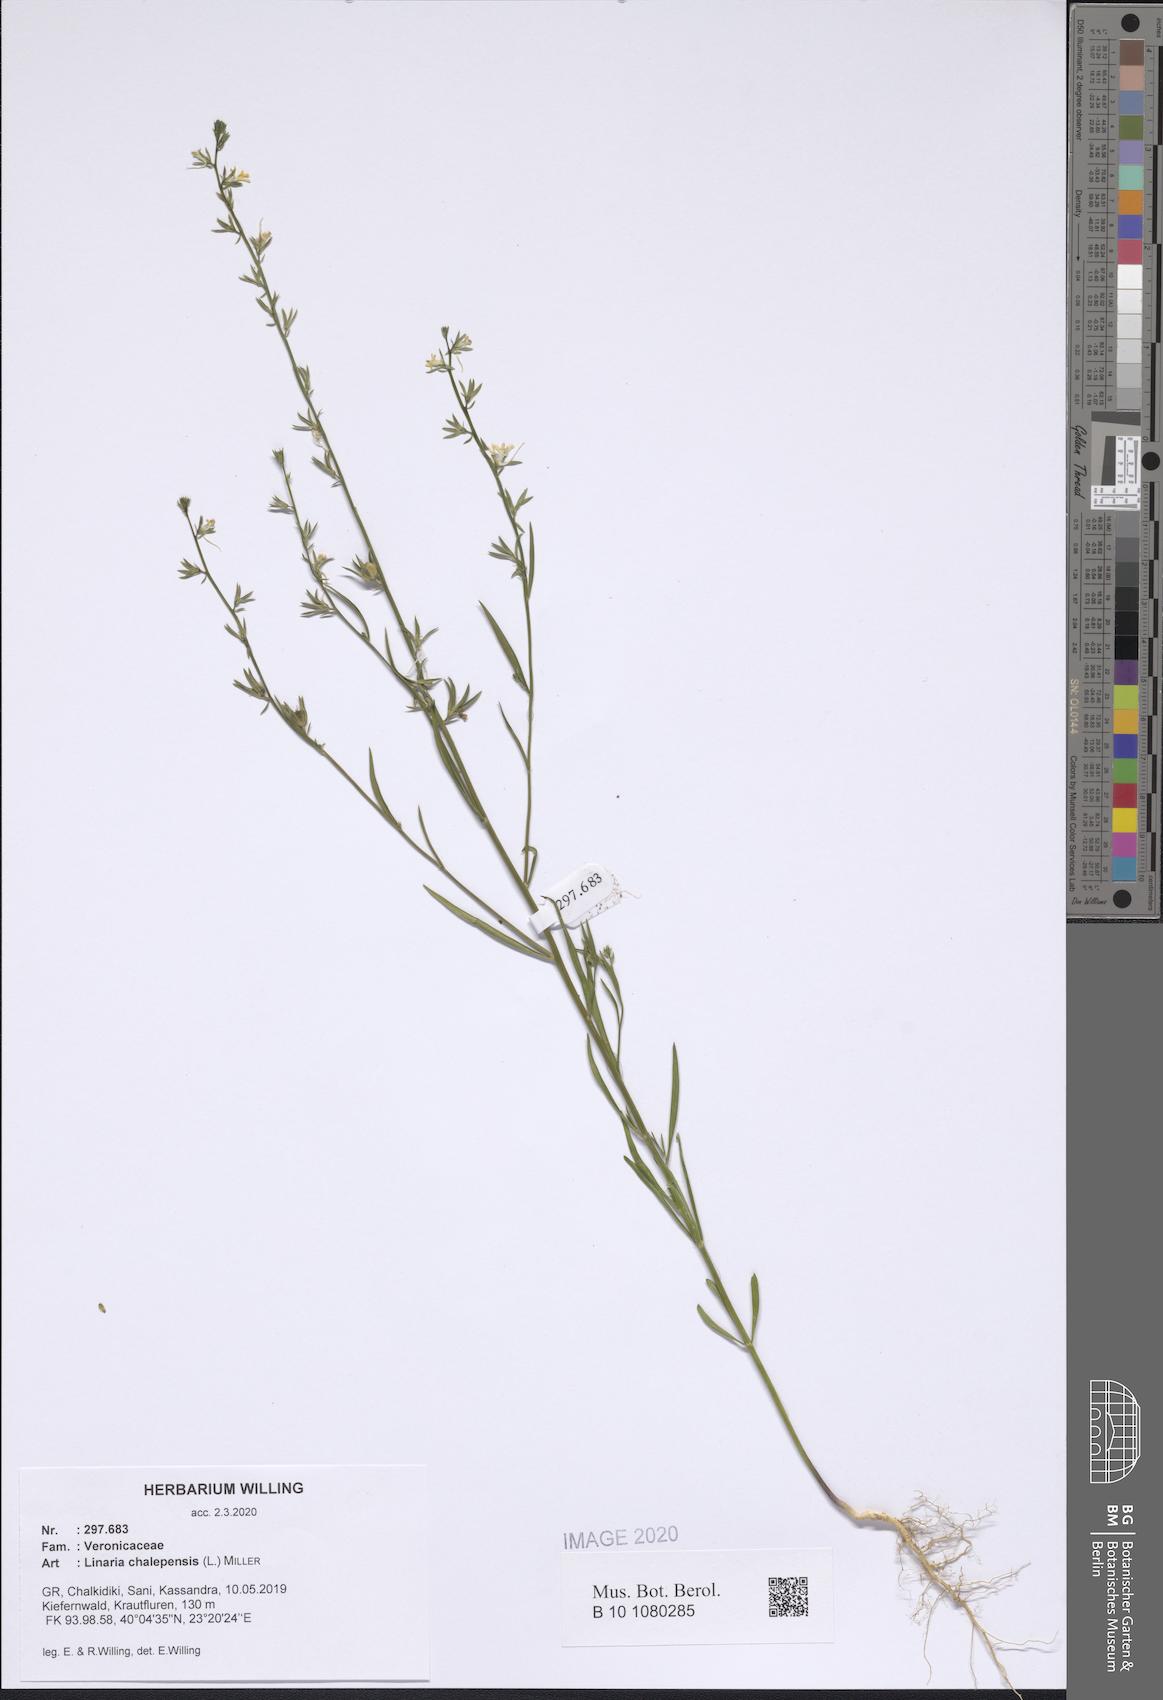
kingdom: Plantae
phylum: Tracheophyta
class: Magnoliopsida
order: Lamiales
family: Plantaginaceae
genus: Linaria
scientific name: Linaria chalepensis
